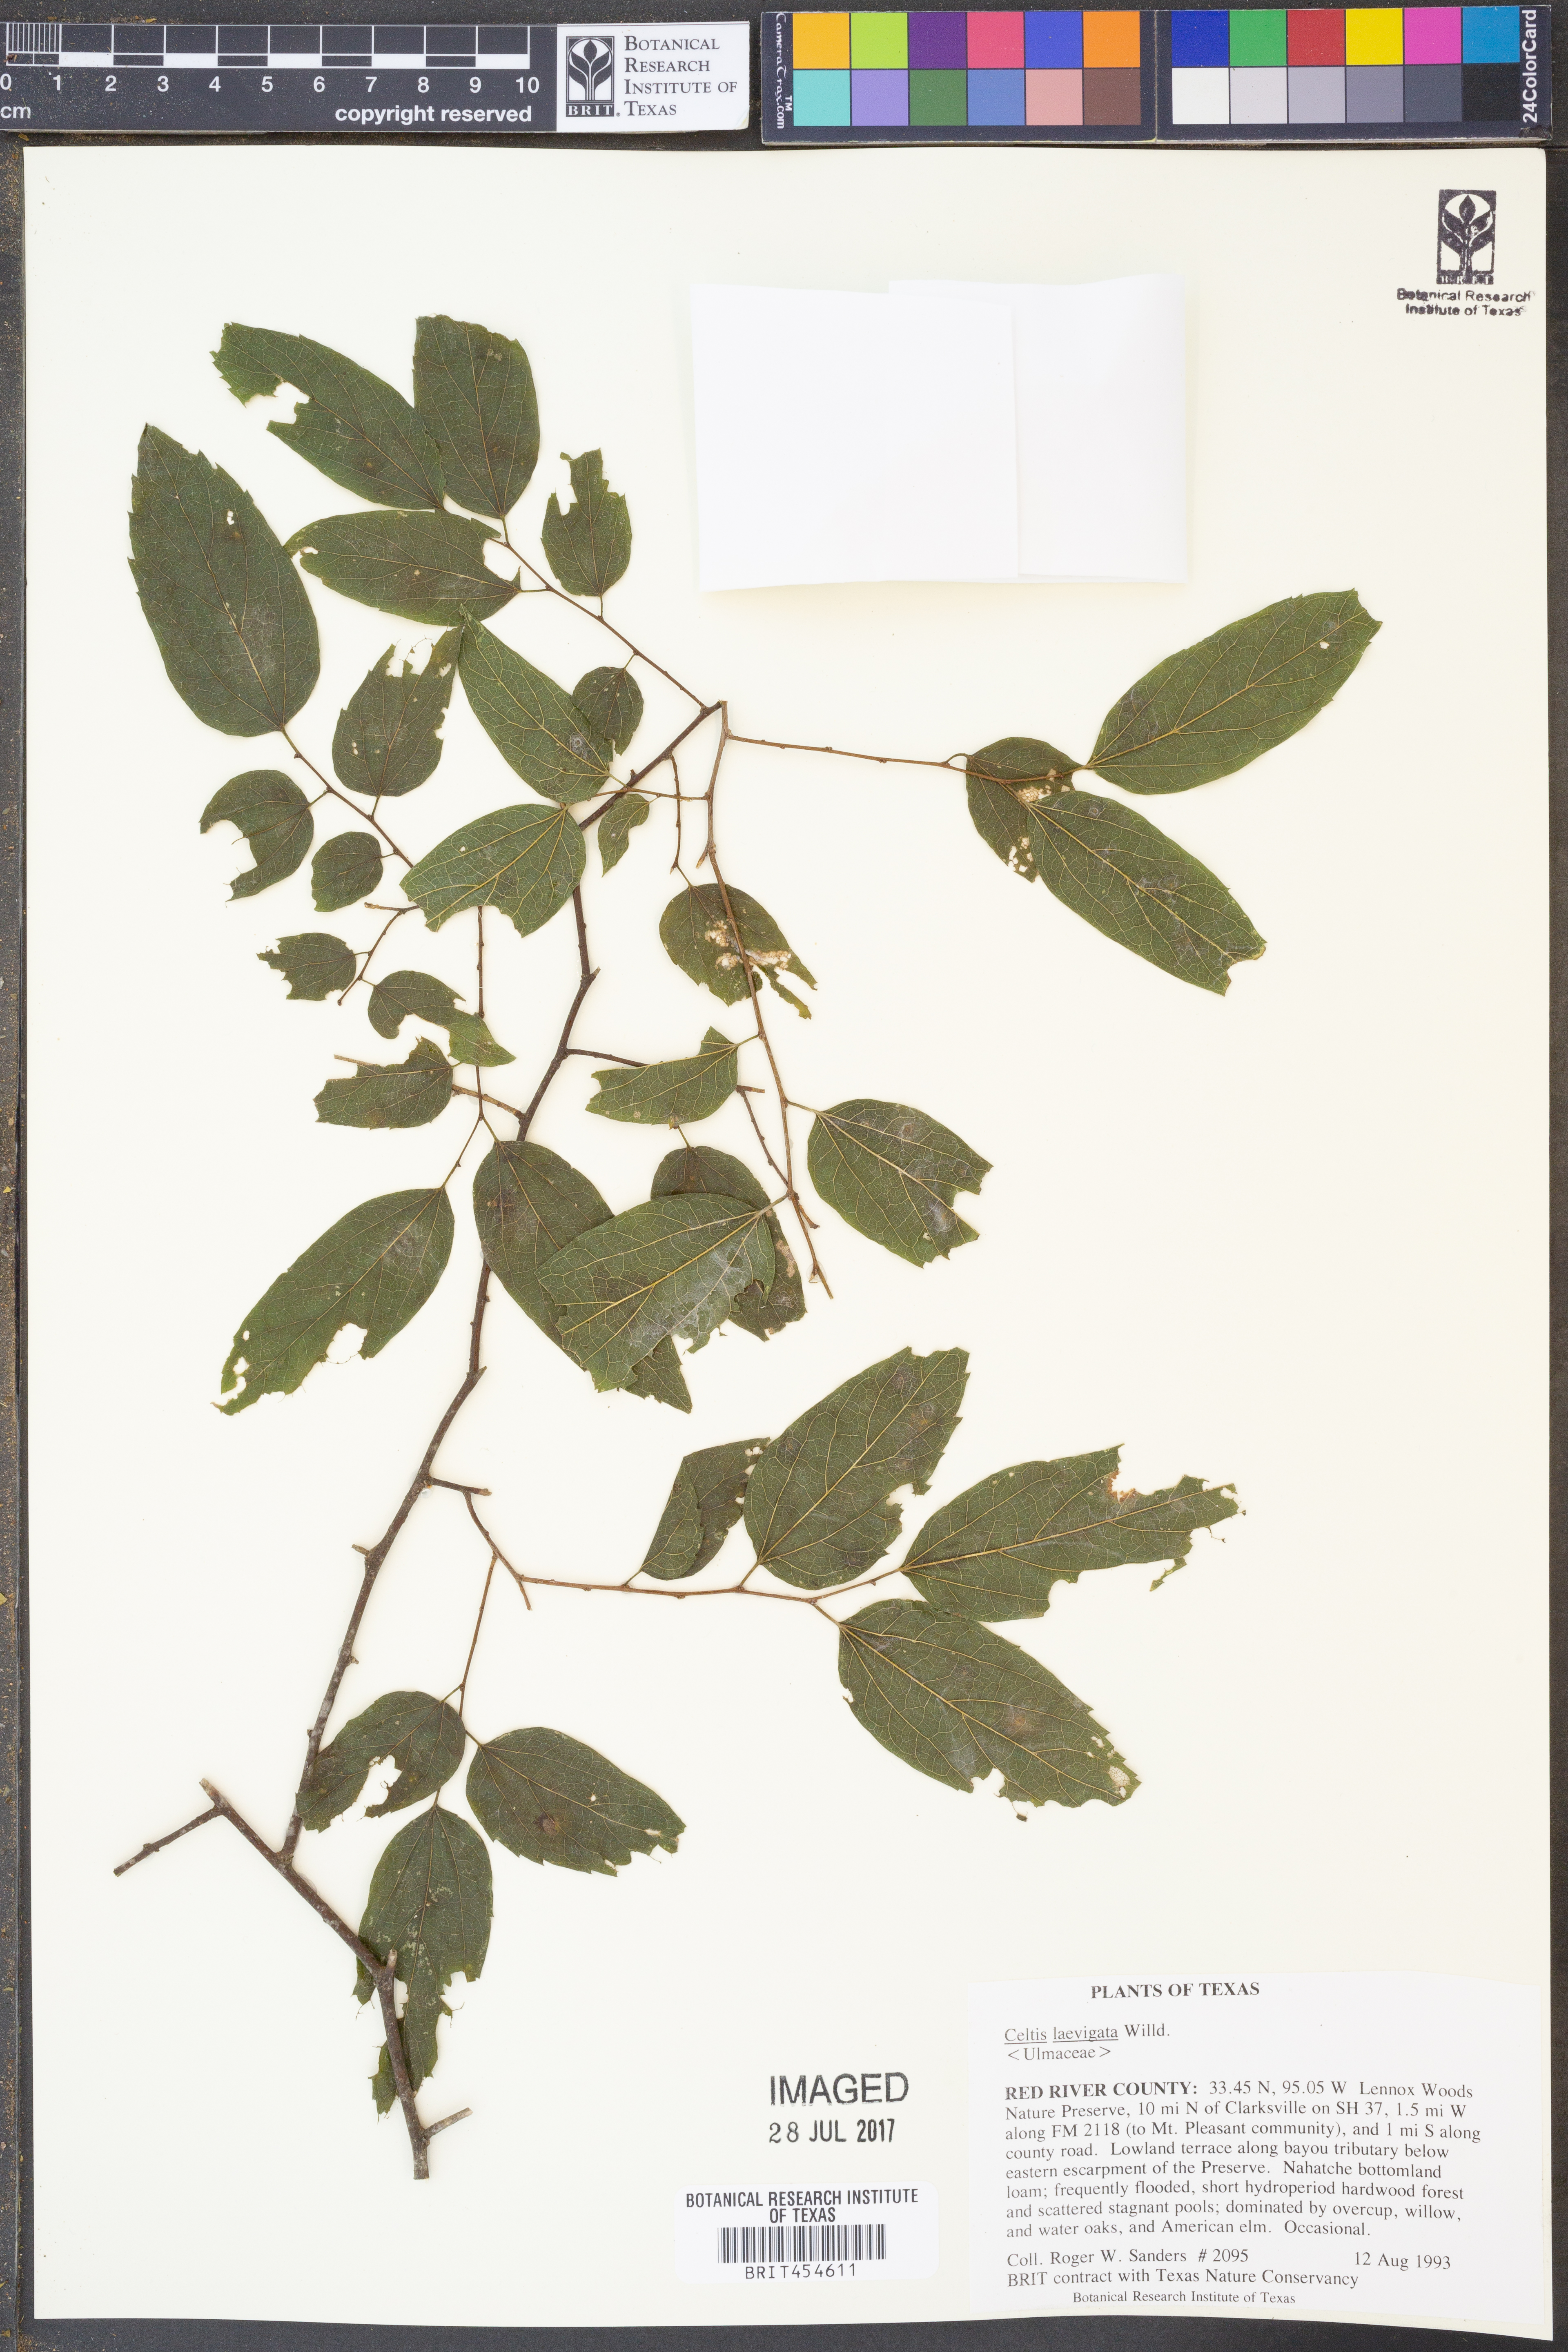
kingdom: Plantae
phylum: Tracheophyta
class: Magnoliopsida
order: Rosales
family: Cannabaceae
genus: Celtis
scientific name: Celtis laevigata
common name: Sugarberry
